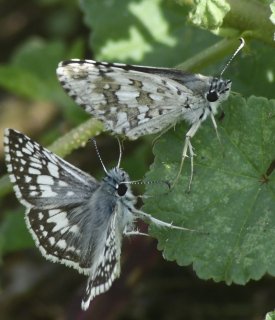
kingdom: Animalia
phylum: Arthropoda
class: Insecta
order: Lepidoptera
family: Hesperiidae
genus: Pyrgus
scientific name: Pyrgus communis
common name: Common Checkered-Skipper
